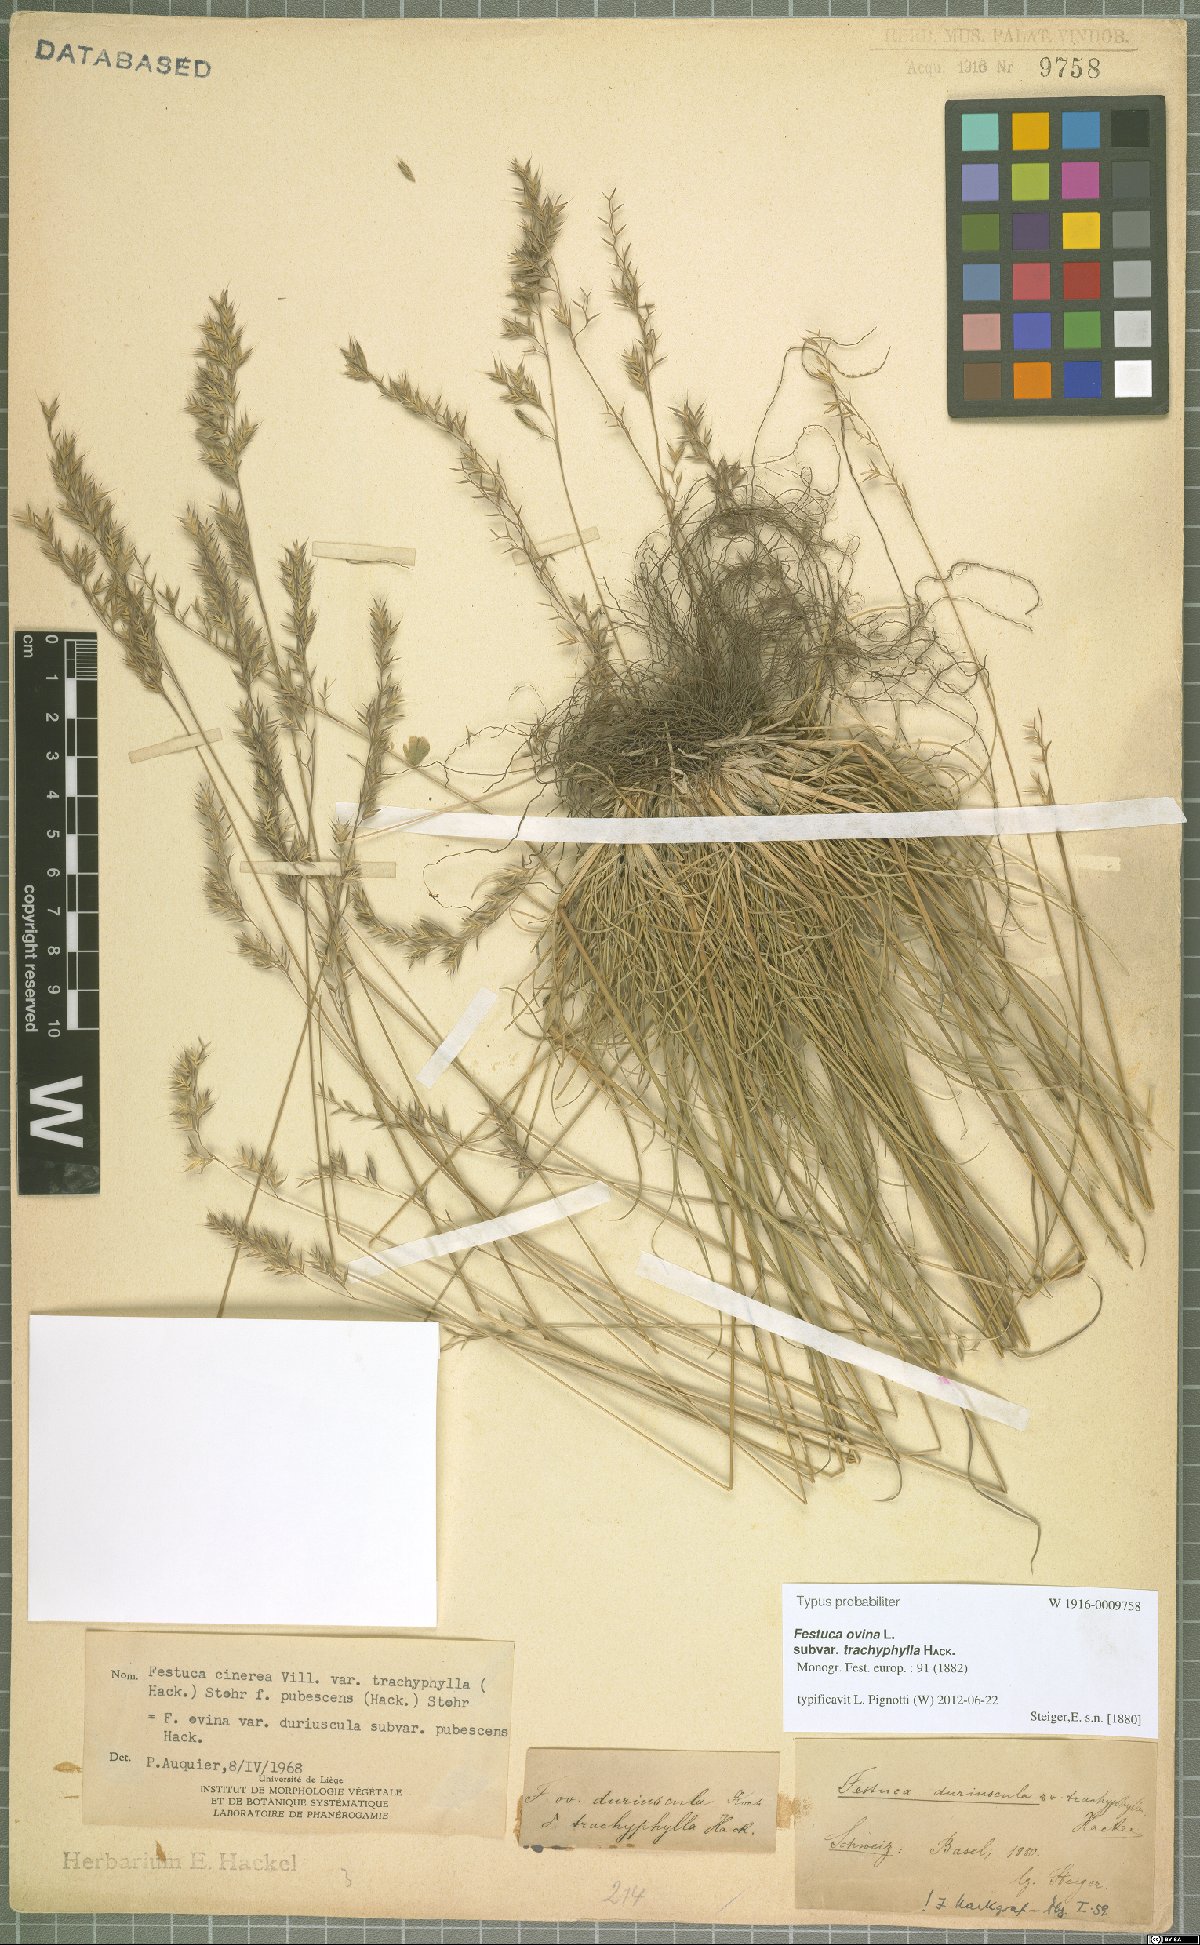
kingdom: Plantae
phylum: Tracheophyta
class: Liliopsida
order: Poales
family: Poaceae
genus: Festuca
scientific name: Festuca ovina
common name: Sheep fescue
